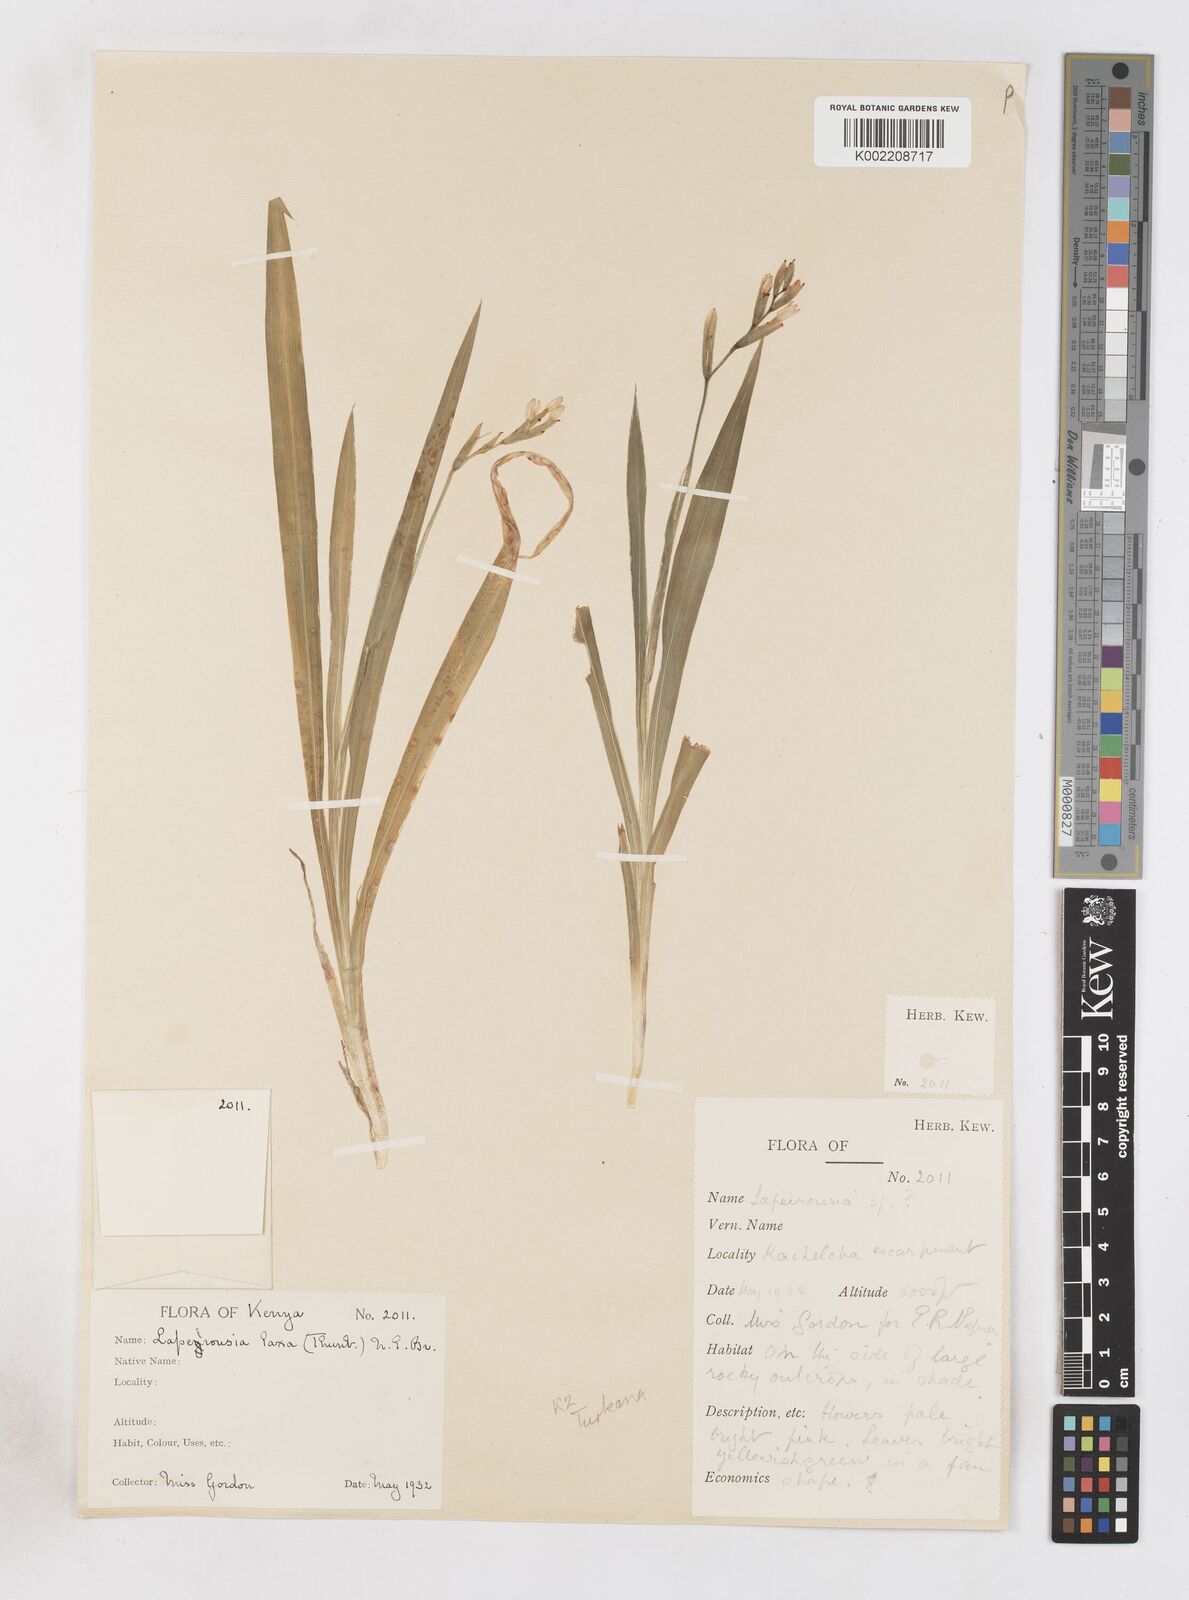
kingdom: Plantae
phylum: Tracheophyta
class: Liliopsida
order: Asparagales
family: Iridaceae
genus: Freesia
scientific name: Freesia laxa
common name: False freesia
